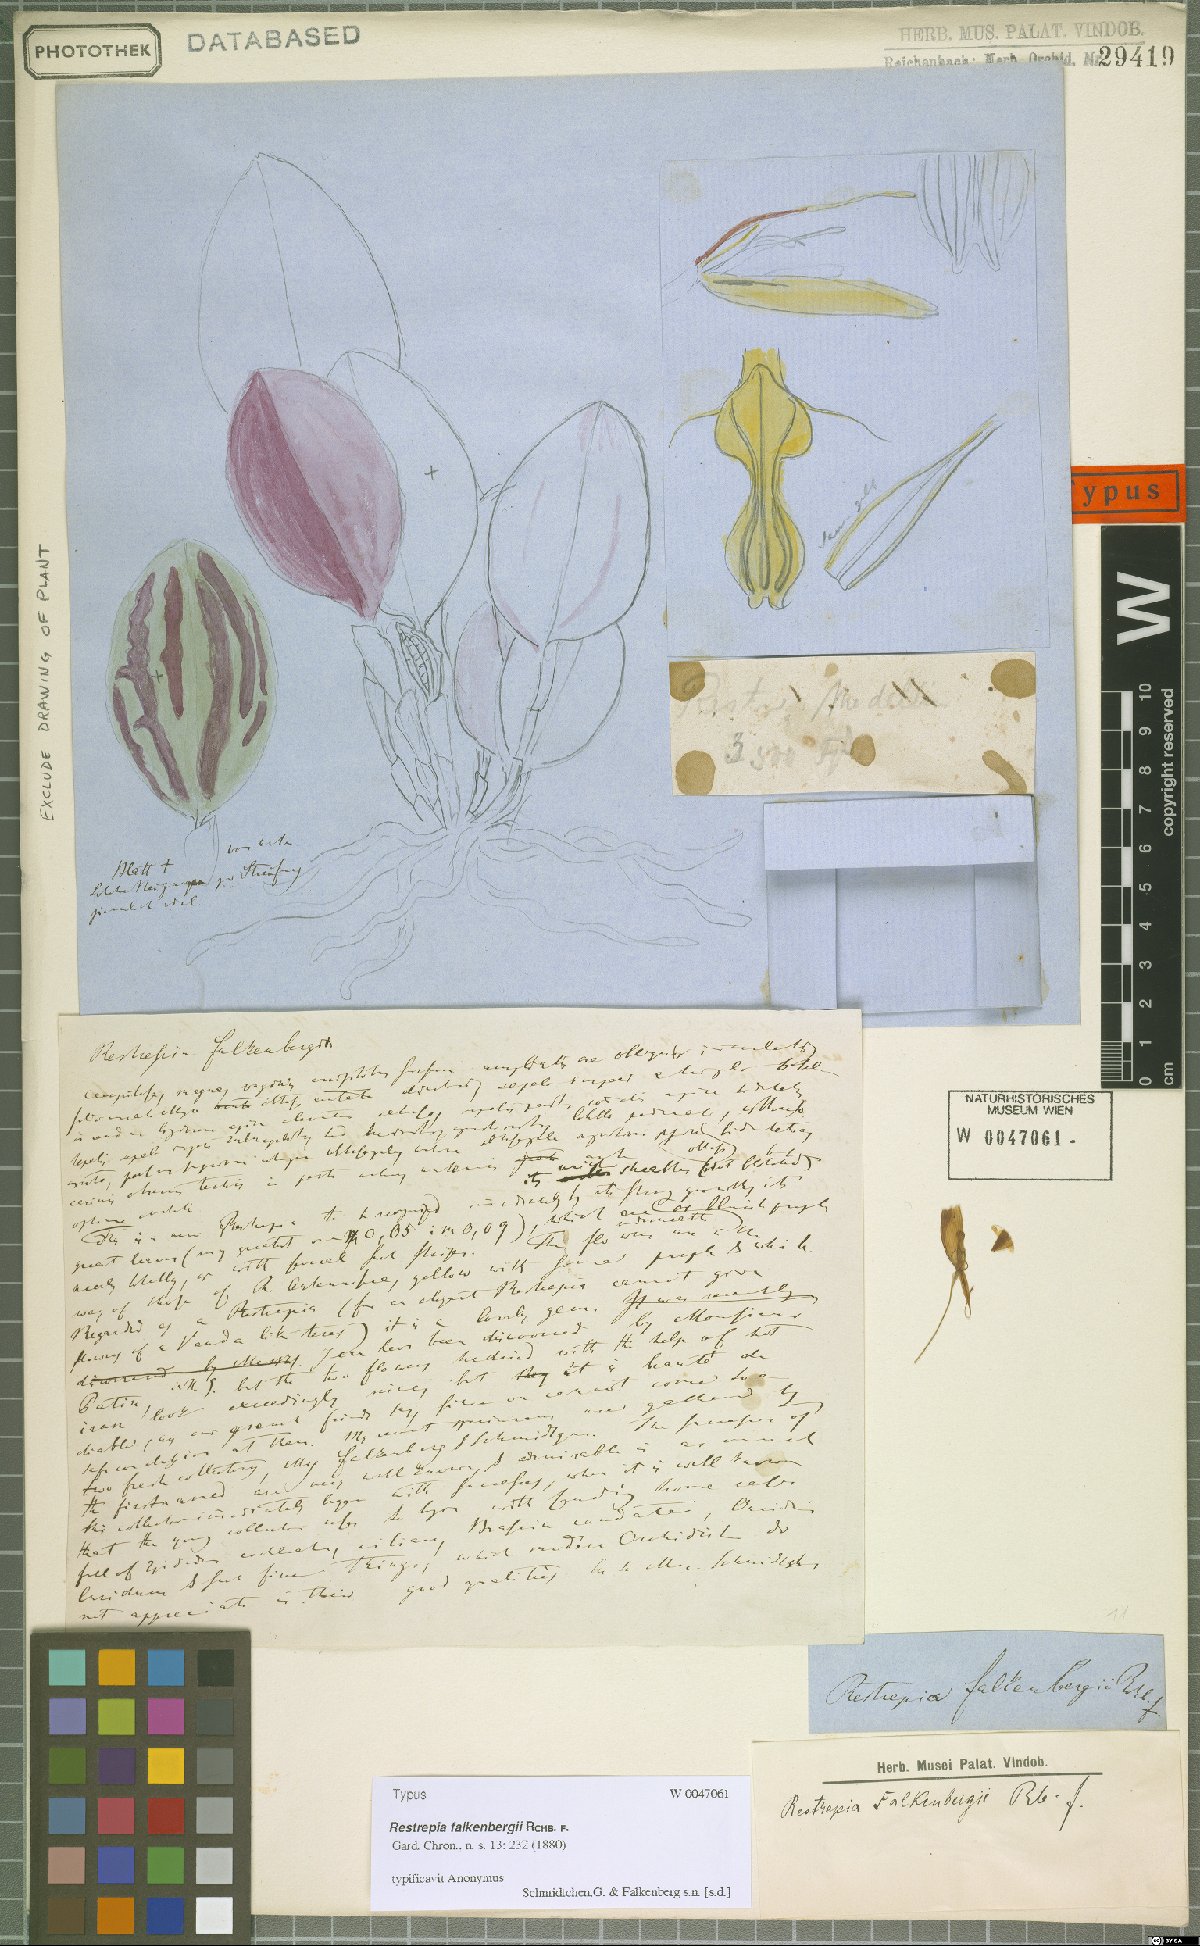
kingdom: Plantae
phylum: Tracheophyta
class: Liliopsida
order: Asparagales
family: Orchidaceae
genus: Restrepia
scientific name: Restrepia falkenbergii
